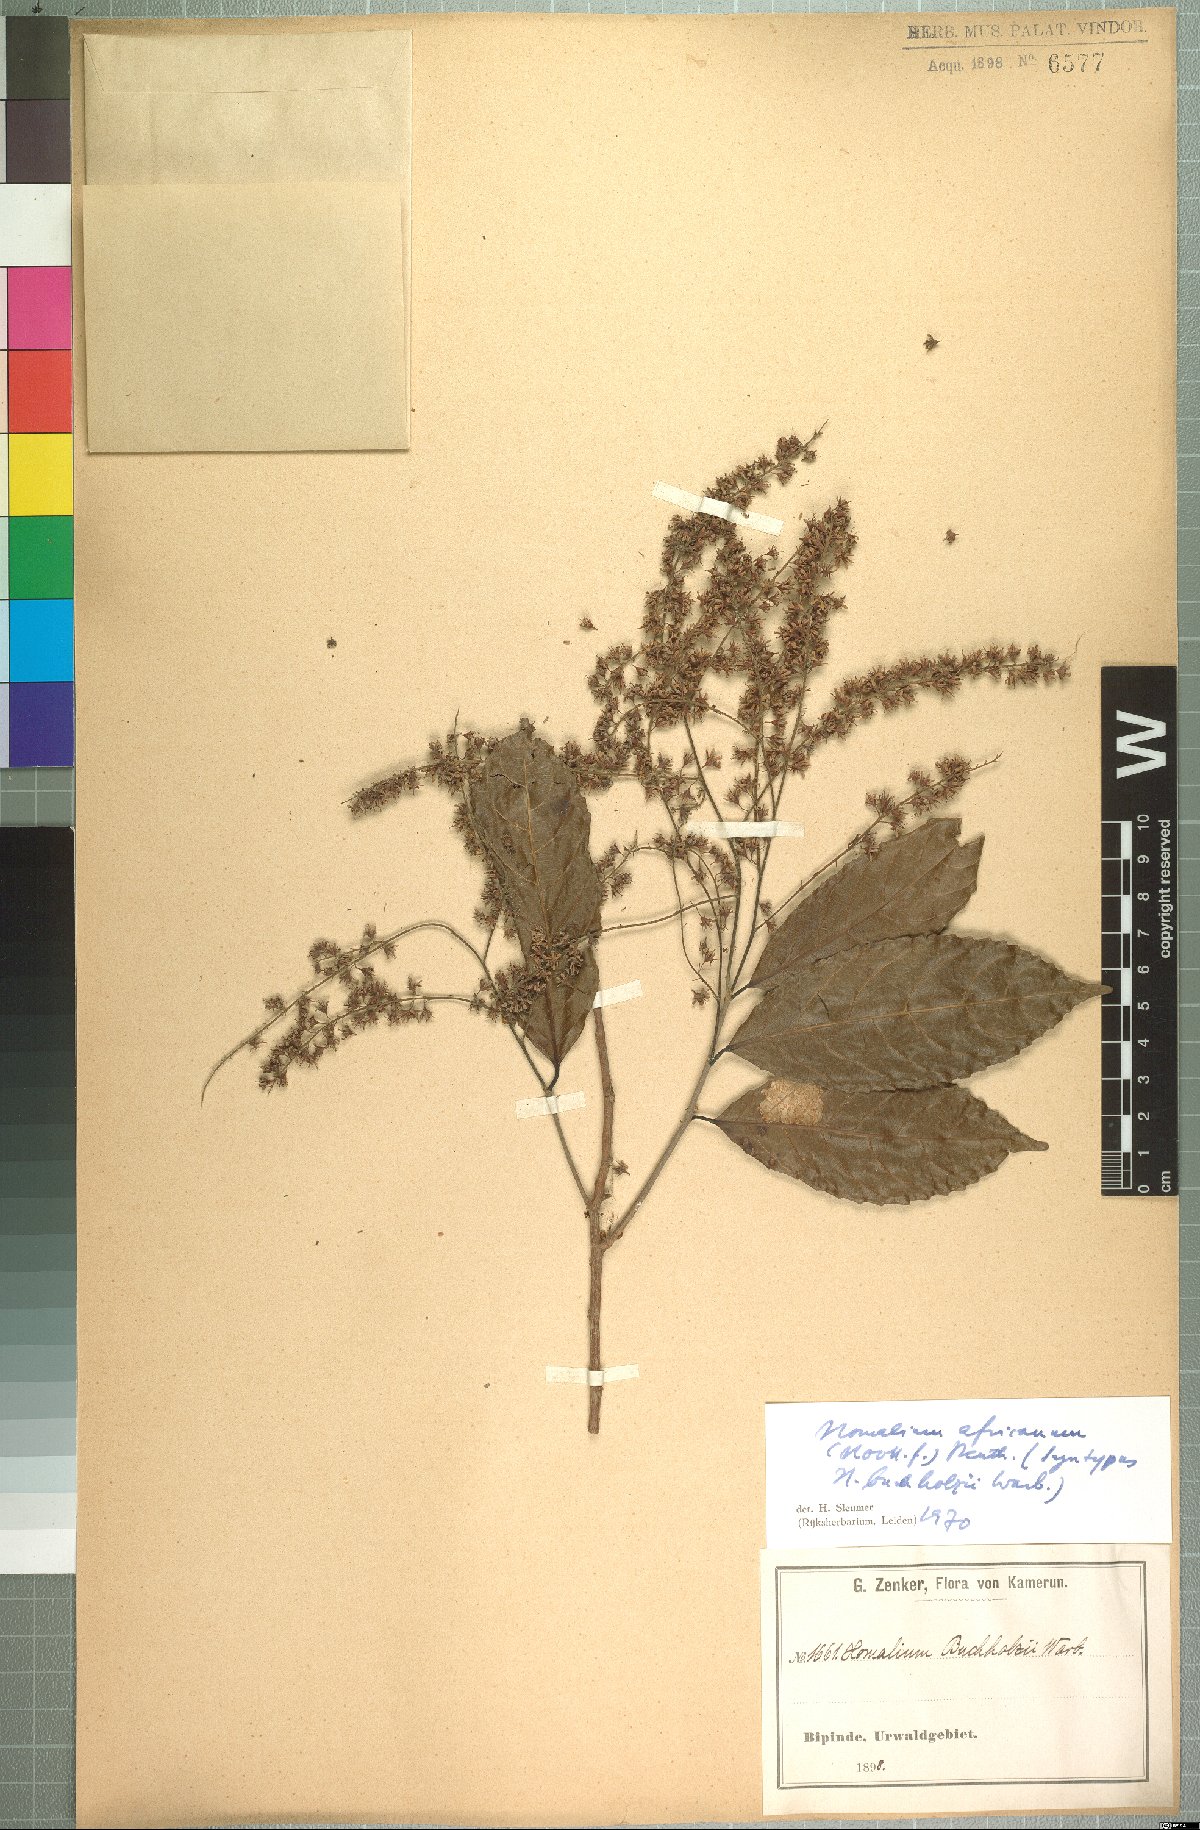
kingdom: Plantae
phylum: Tracheophyta
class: Magnoliopsida
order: Malpighiales
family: Salicaceae
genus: Homalium
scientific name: Homalium africanum
